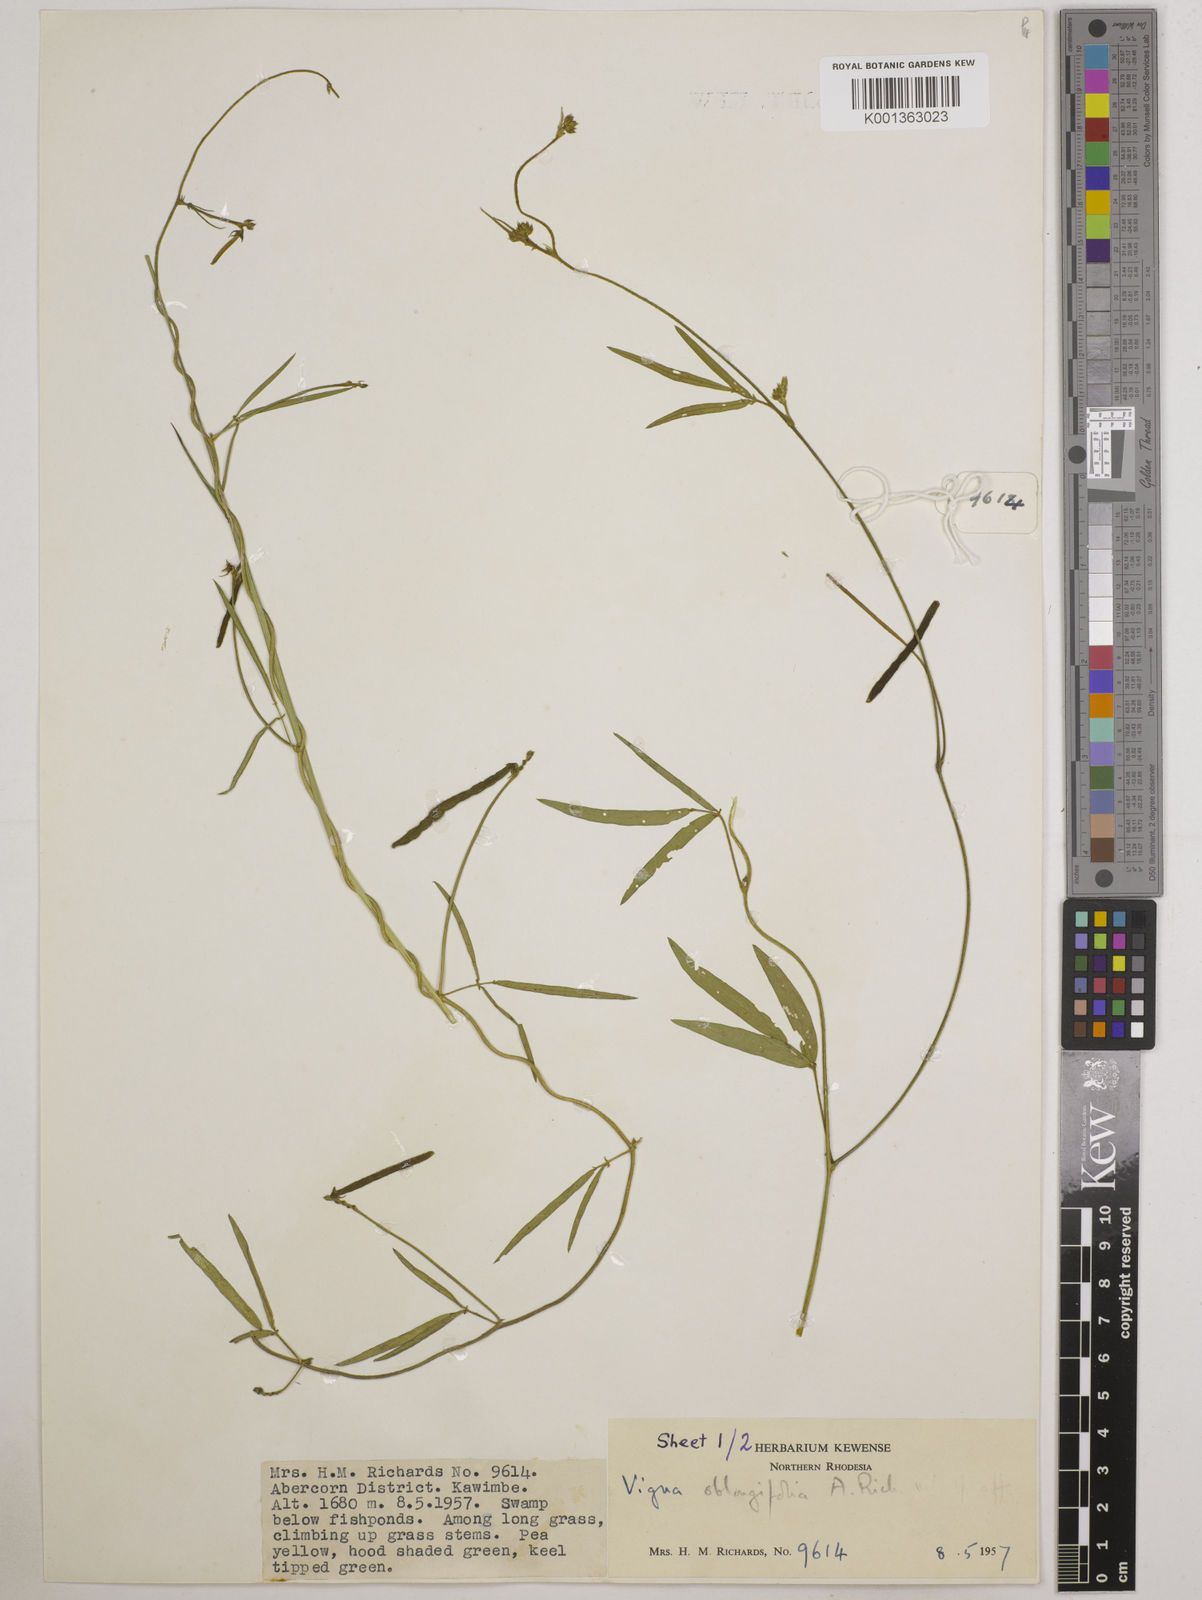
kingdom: Plantae
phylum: Tracheophyta
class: Magnoliopsida
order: Fabales
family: Fabaceae
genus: Vigna
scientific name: Vigna oblongifolia
